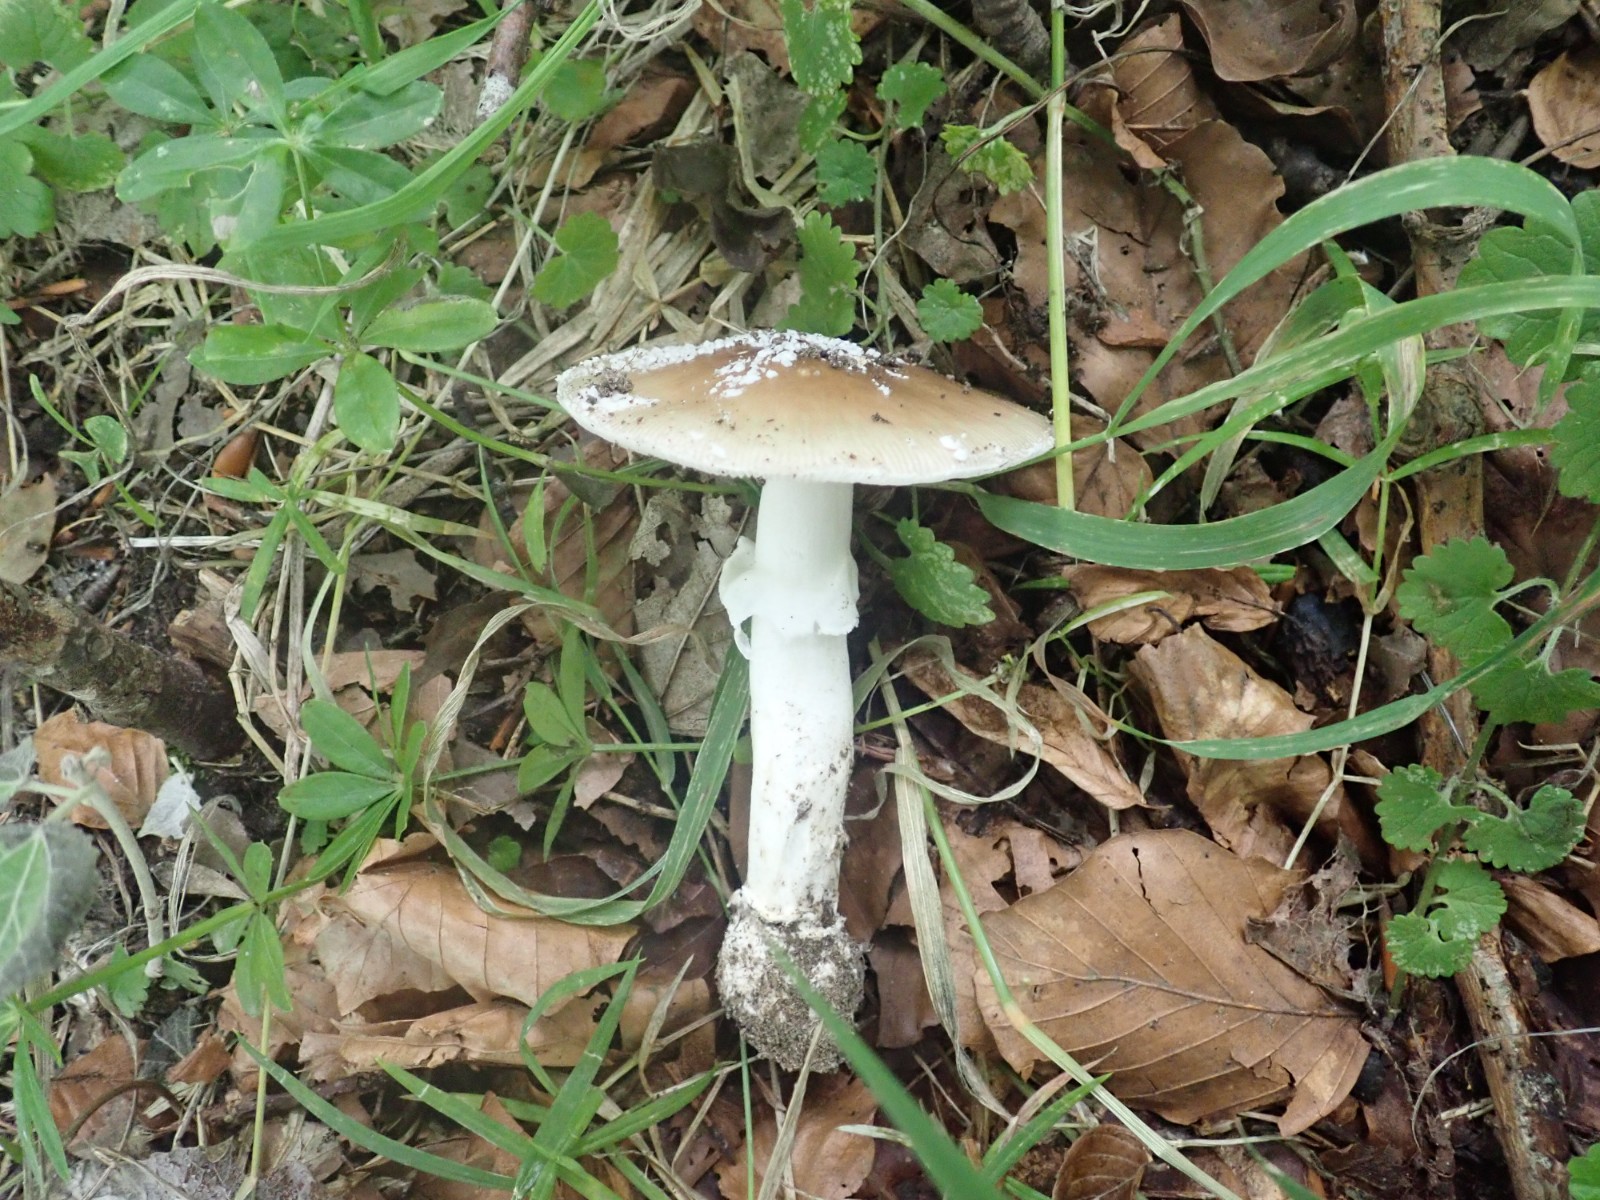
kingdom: Fungi
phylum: Basidiomycota
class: Agaricomycetes
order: Agaricales
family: Amanitaceae
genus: Amanita
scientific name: Amanita pantherina
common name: panter-fluesvamp
